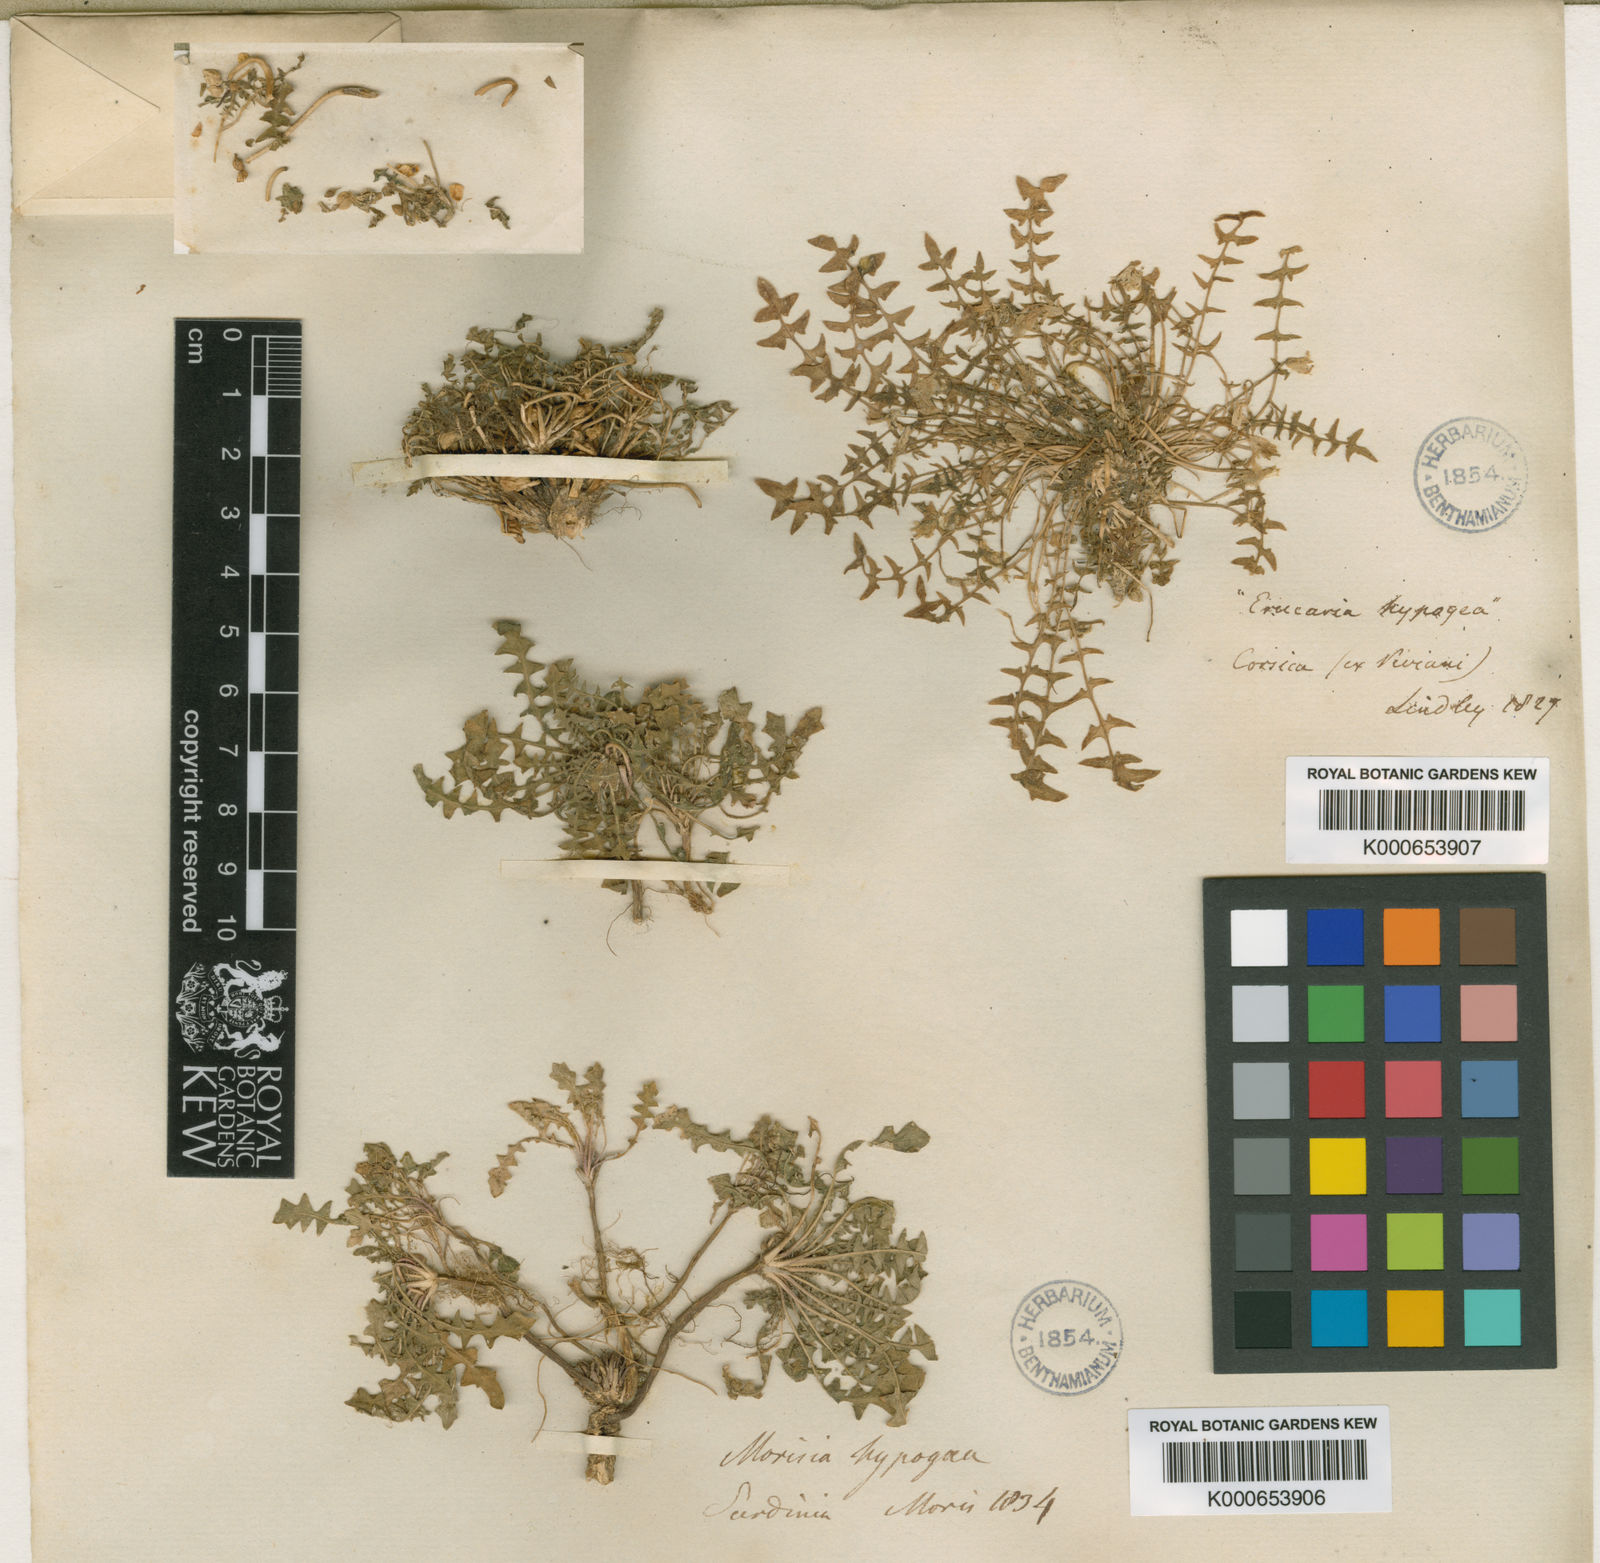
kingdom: Plantae
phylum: Tracheophyta
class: Magnoliopsida
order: Brassicales
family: Brassicaceae
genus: Morisia
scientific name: Morisia
